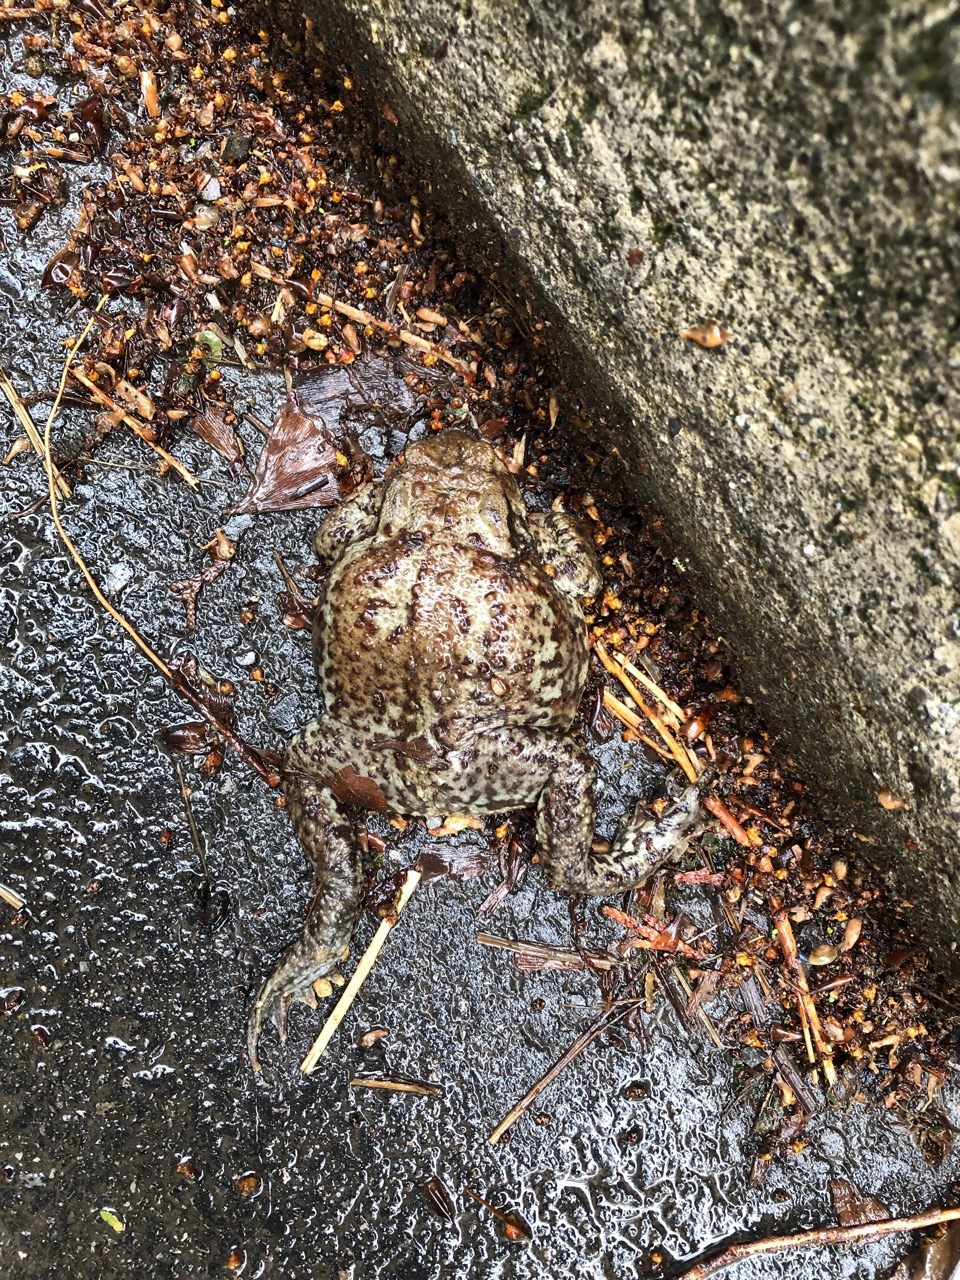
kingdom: Animalia
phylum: Chordata
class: Amphibia
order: Anura
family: Bufonidae
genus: Bufo
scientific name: Bufo bufo
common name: Common toad
